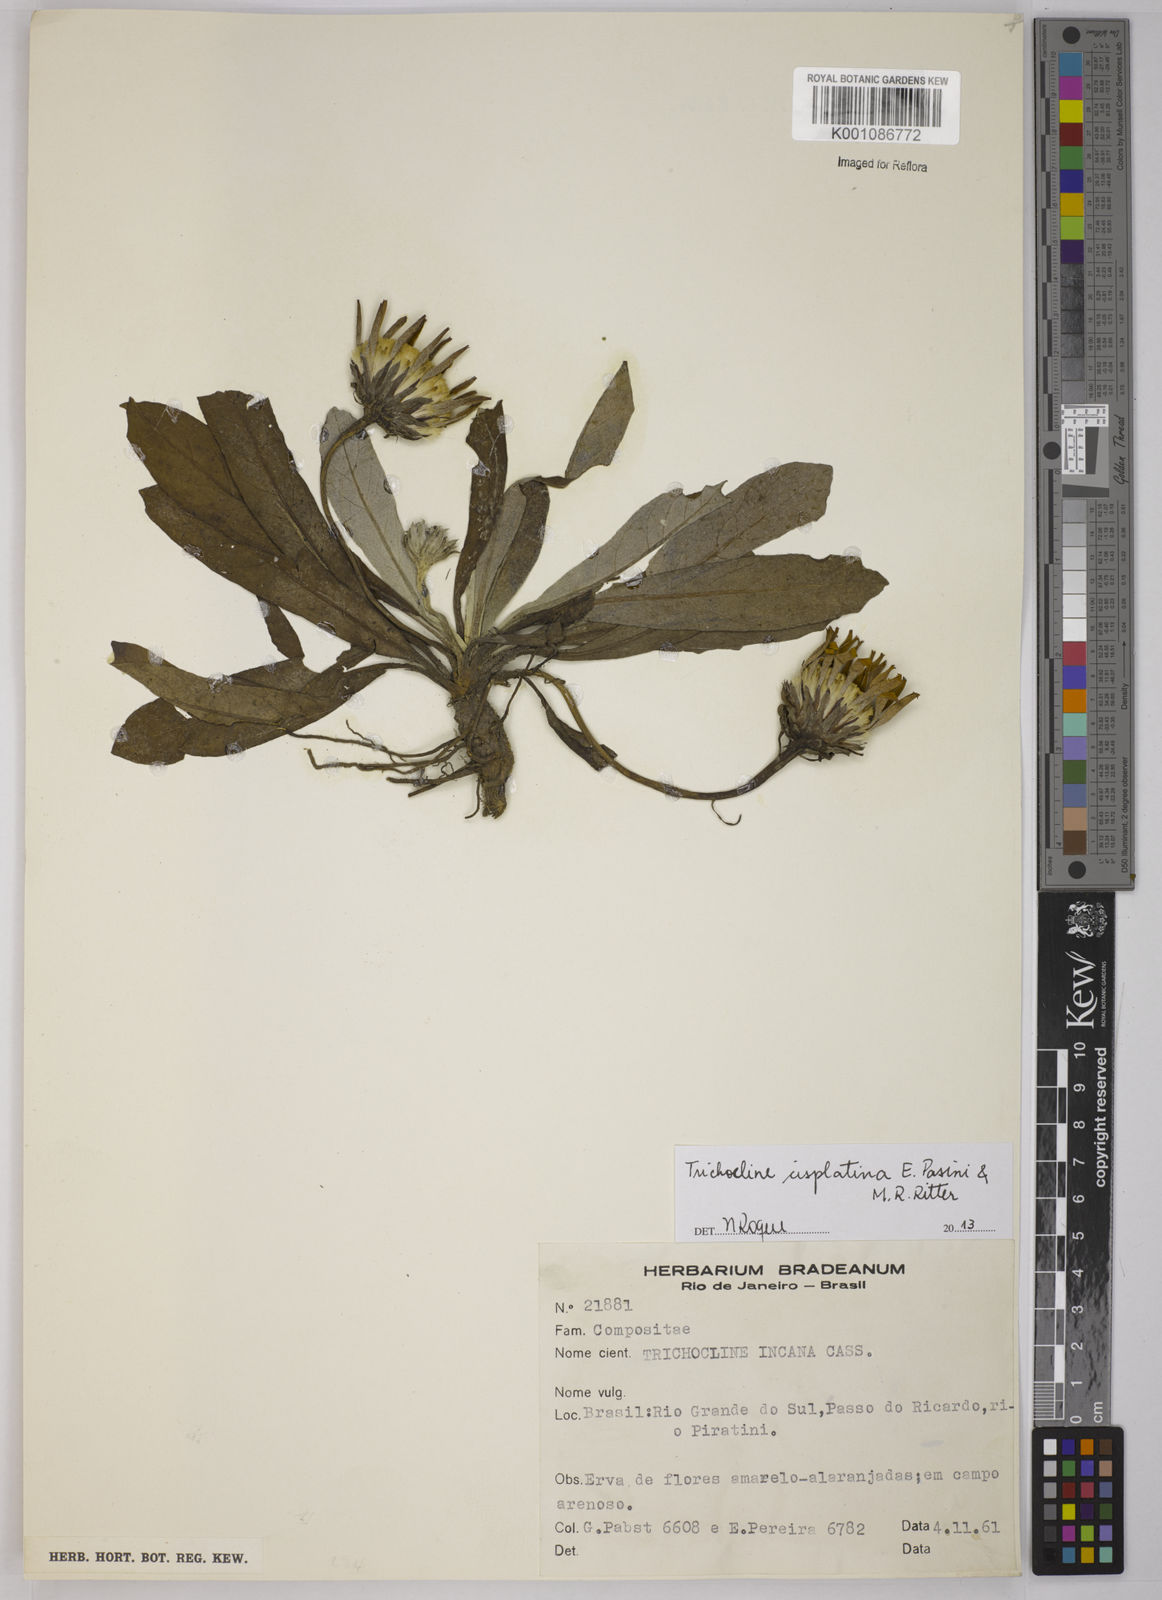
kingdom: Plantae
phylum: Tracheophyta
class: Magnoliopsida
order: Asterales
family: Asteraceae
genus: Trichocline
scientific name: Trichocline cisplatina
